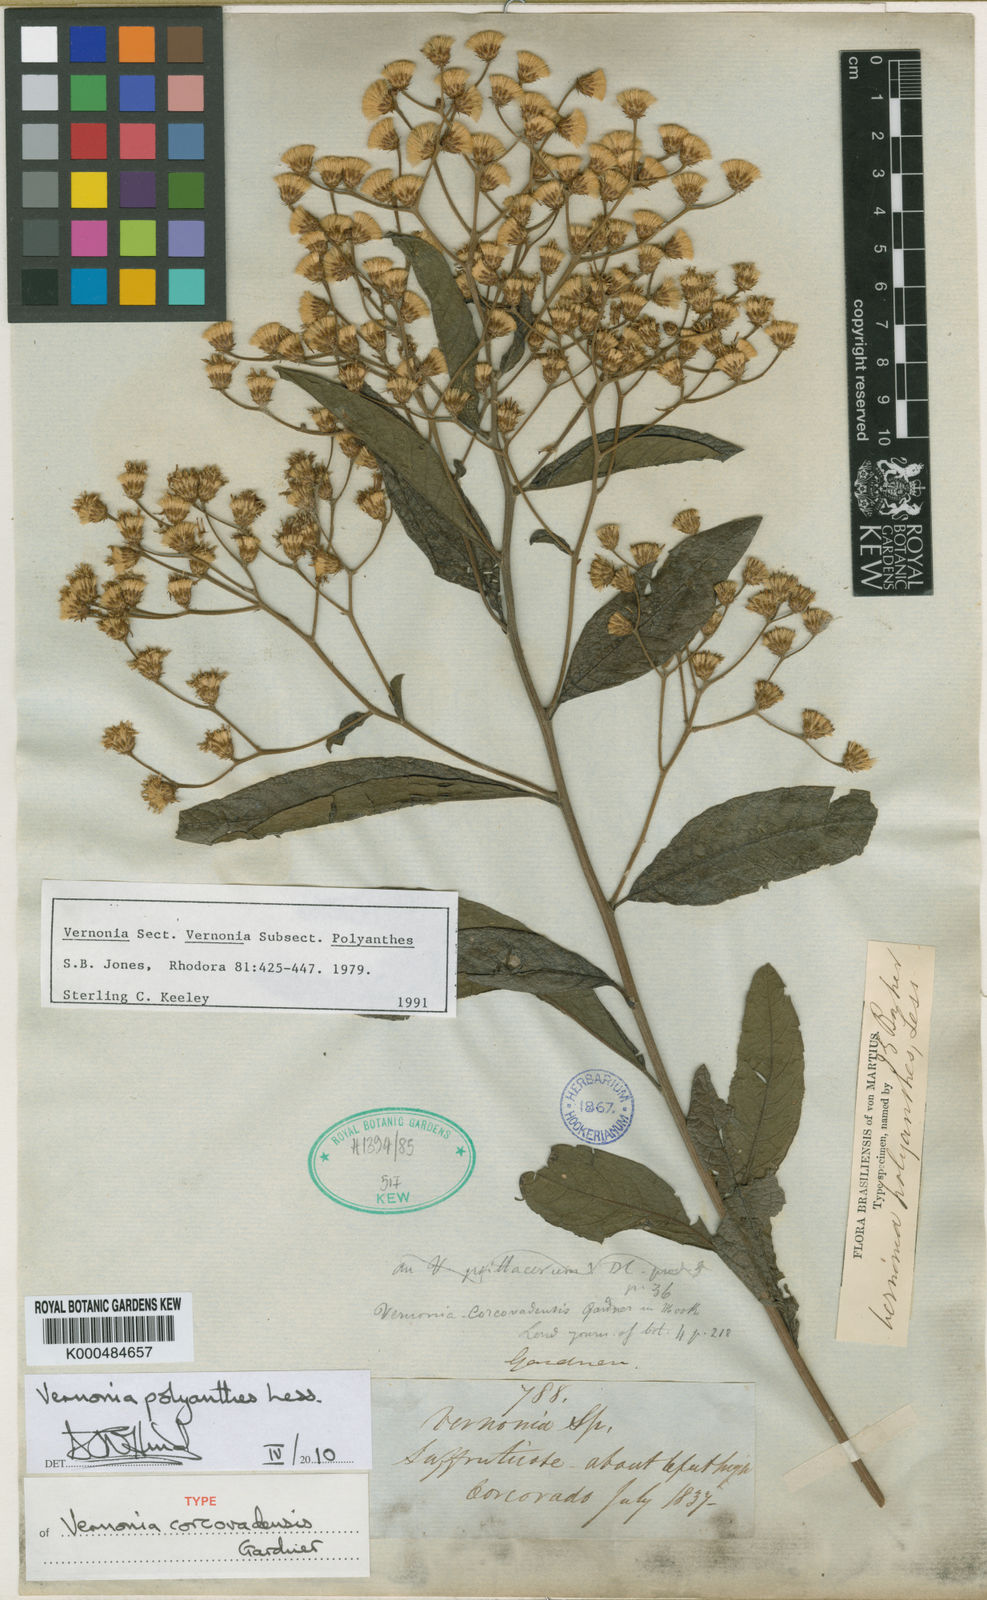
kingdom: Plantae
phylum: Tracheophyta
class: Magnoliopsida
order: Asterales
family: Asteraceae
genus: Vernonanthura
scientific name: Vernonanthura polyanthes
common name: Tree aster
